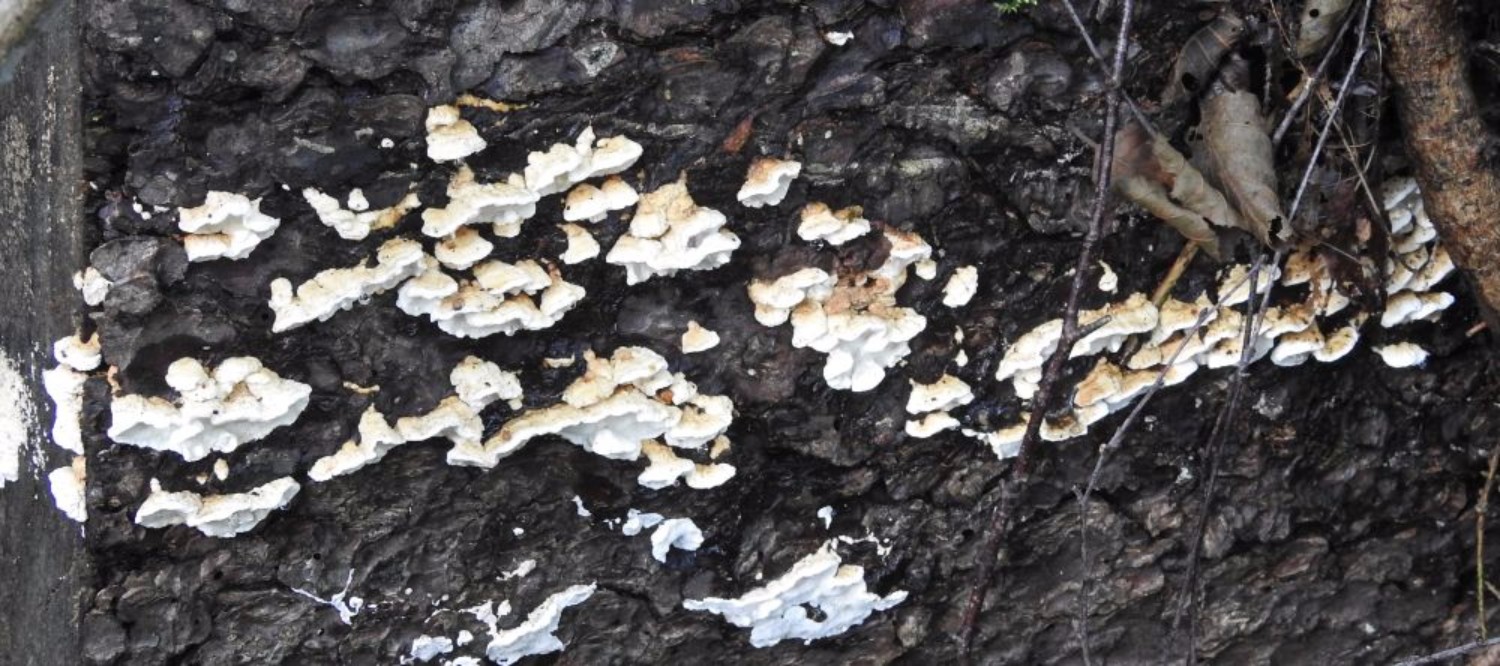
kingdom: Fungi
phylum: Basidiomycota
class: Agaricomycetes
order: Polyporales
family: Incrustoporiaceae
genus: Skeletocutis
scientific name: Skeletocutis nemoralis
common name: stor krystalporesvamp
